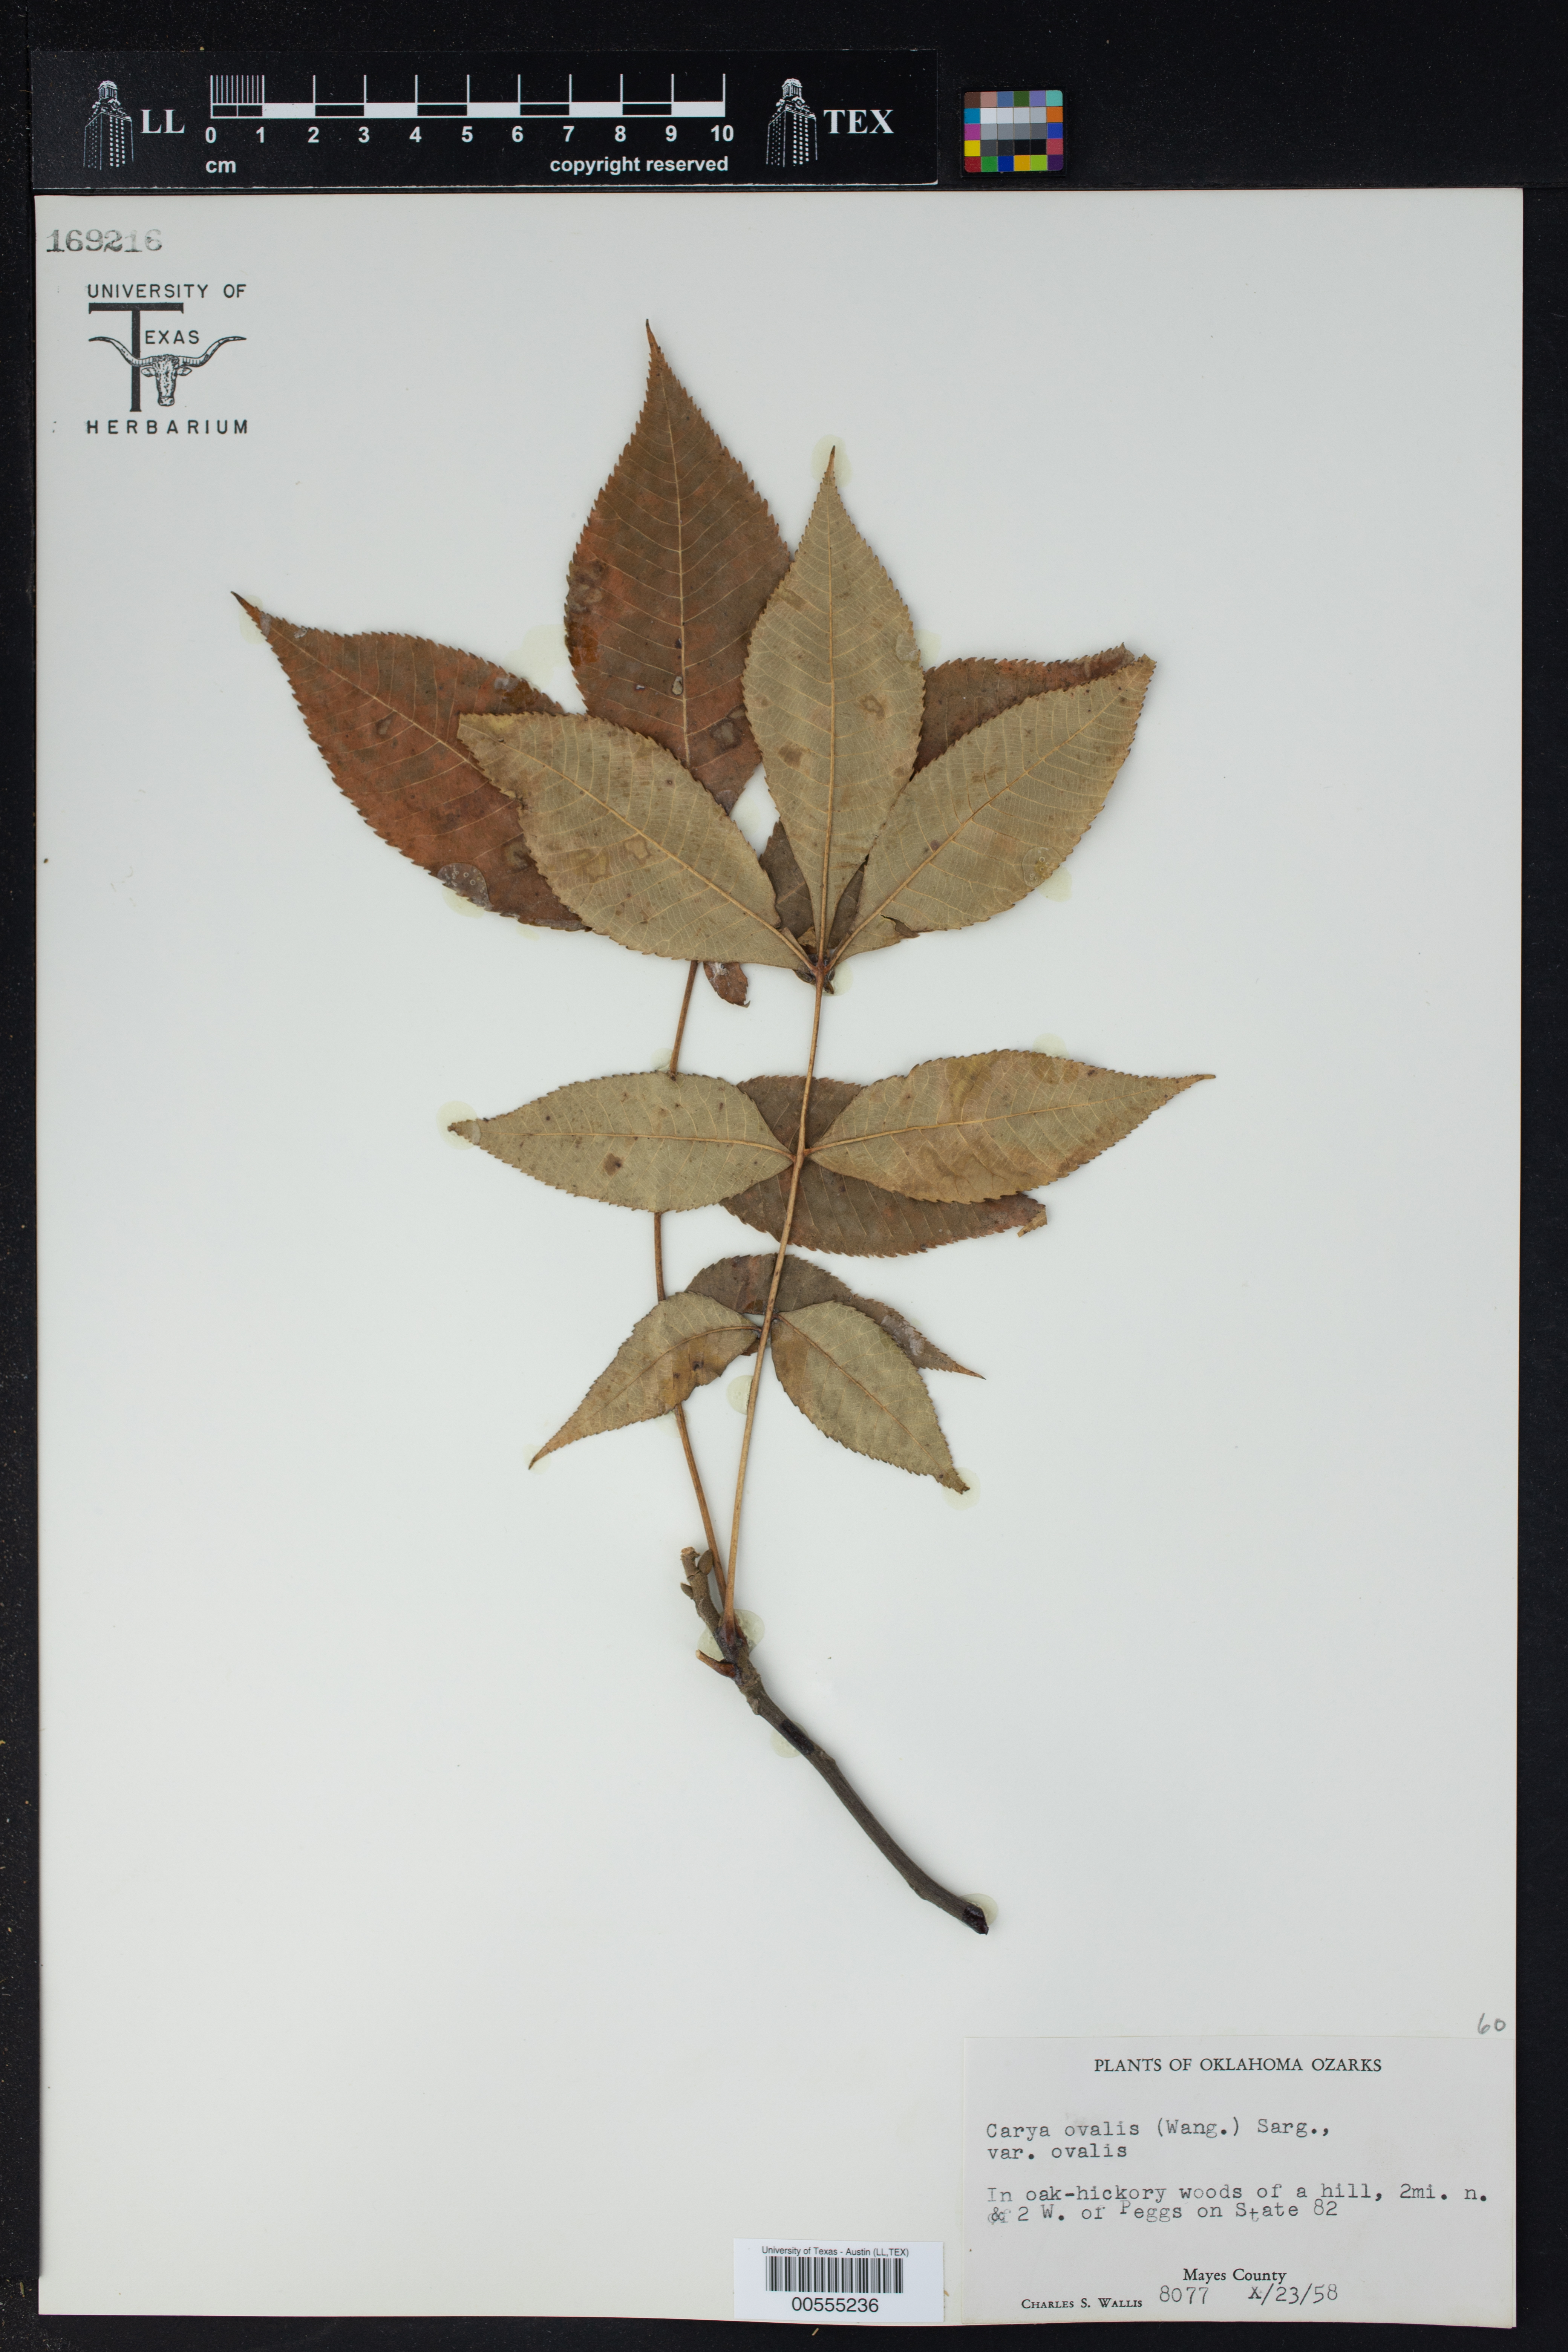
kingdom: Plantae
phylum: Tracheophyta
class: Magnoliopsida
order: Fagales
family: Juglandaceae
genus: Carya
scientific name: Carya ovalis
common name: False shagbark
